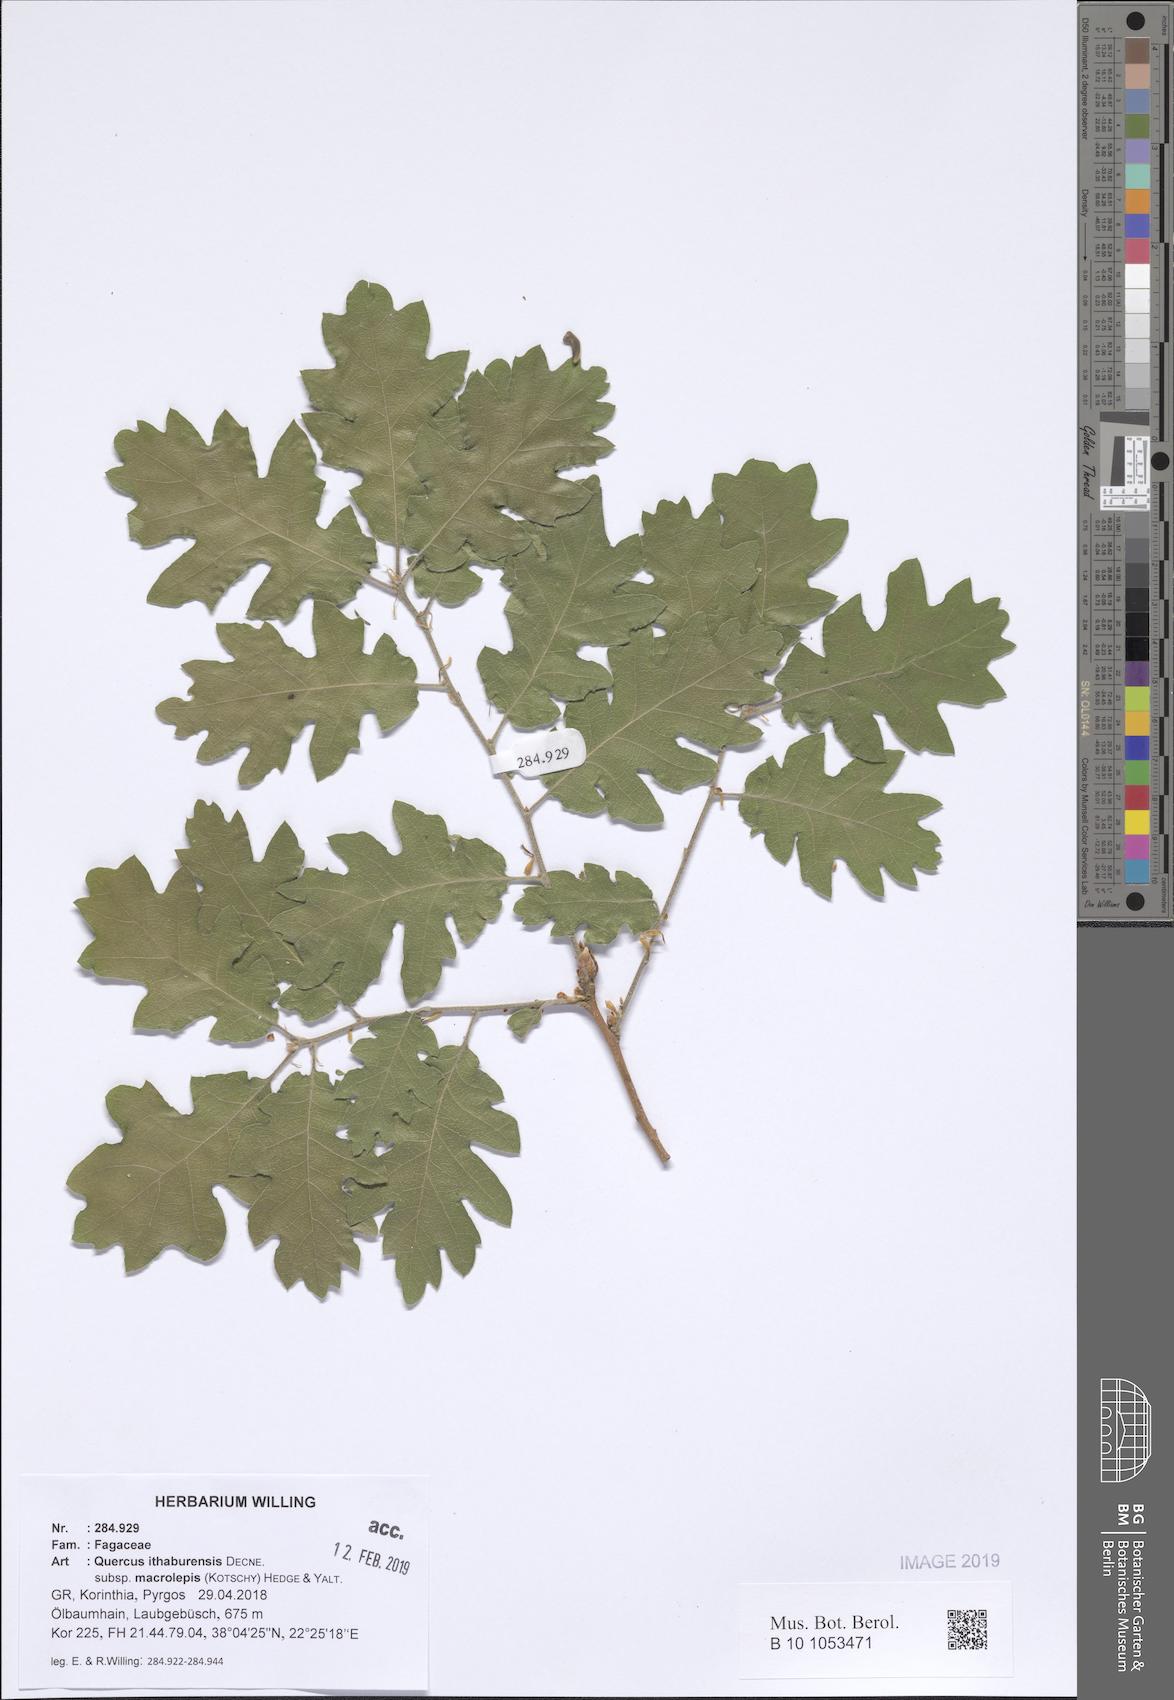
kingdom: Plantae
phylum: Tracheophyta
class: Magnoliopsida
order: Fagales
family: Fagaceae
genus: Quercus
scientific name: Quercus ithaburensis
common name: Tabor oak
